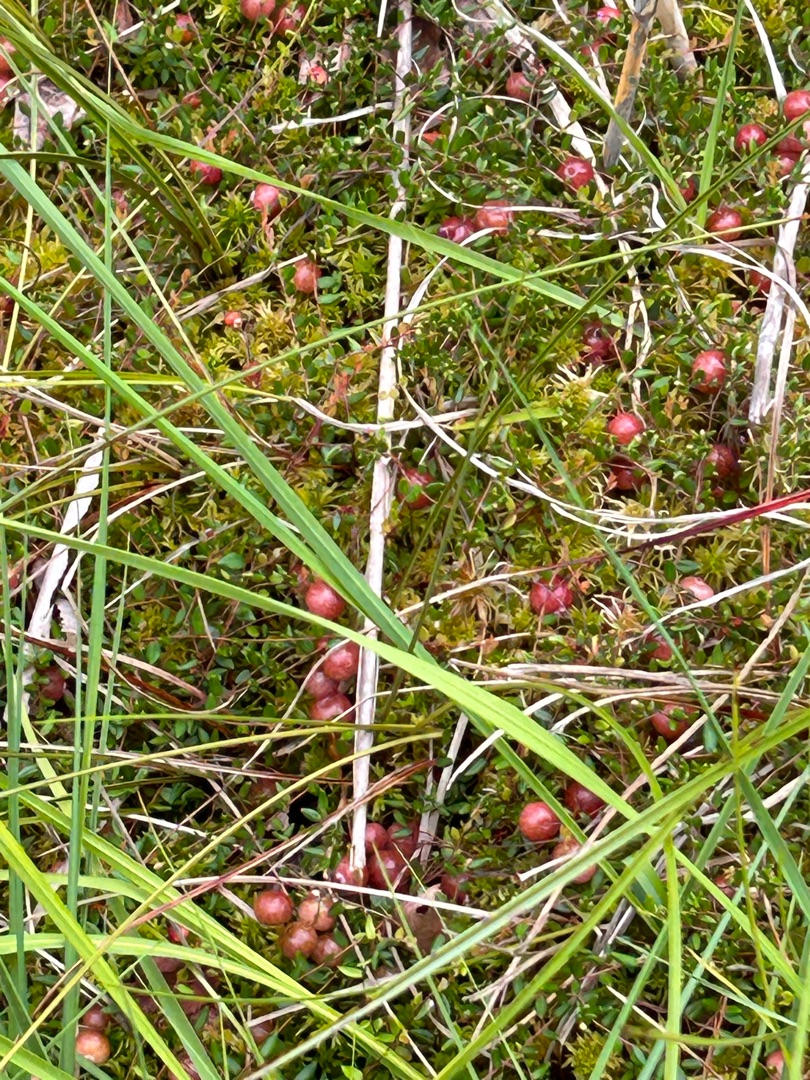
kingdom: Plantae
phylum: Tracheophyta
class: Magnoliopsida
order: Ericales
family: Ericaceae
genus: Vaccinium
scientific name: Vaccinium oxycoccos
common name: Tranebær
